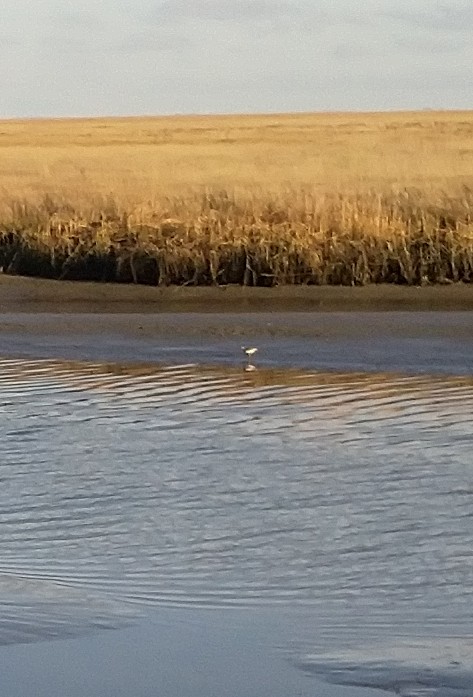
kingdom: Animalia
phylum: Chordata
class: Aves
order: Charadriiformes
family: Scolopacidae
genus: Tringa
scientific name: Tringa totanus
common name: Rødben
